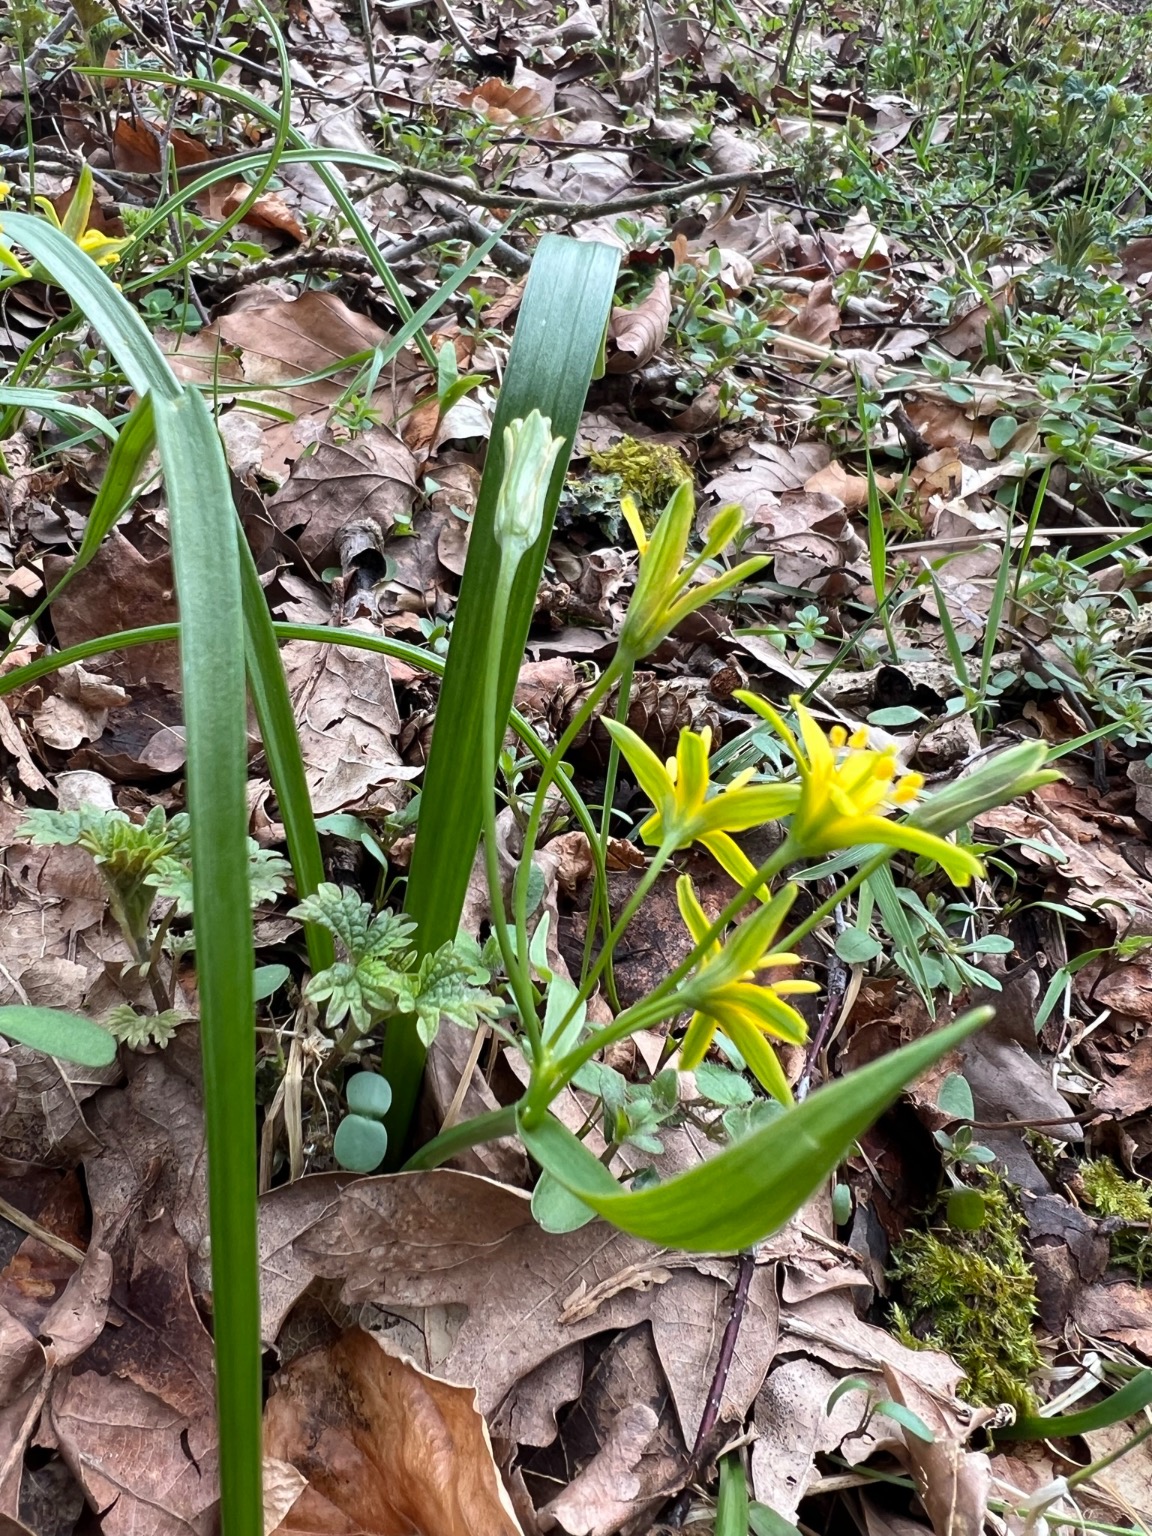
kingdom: Plantae
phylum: Tracheophyta
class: Liliopsida
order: Liliales
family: Liliaceae
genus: Gagea
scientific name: Gagea lutea
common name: Almindelig guldstjerne
